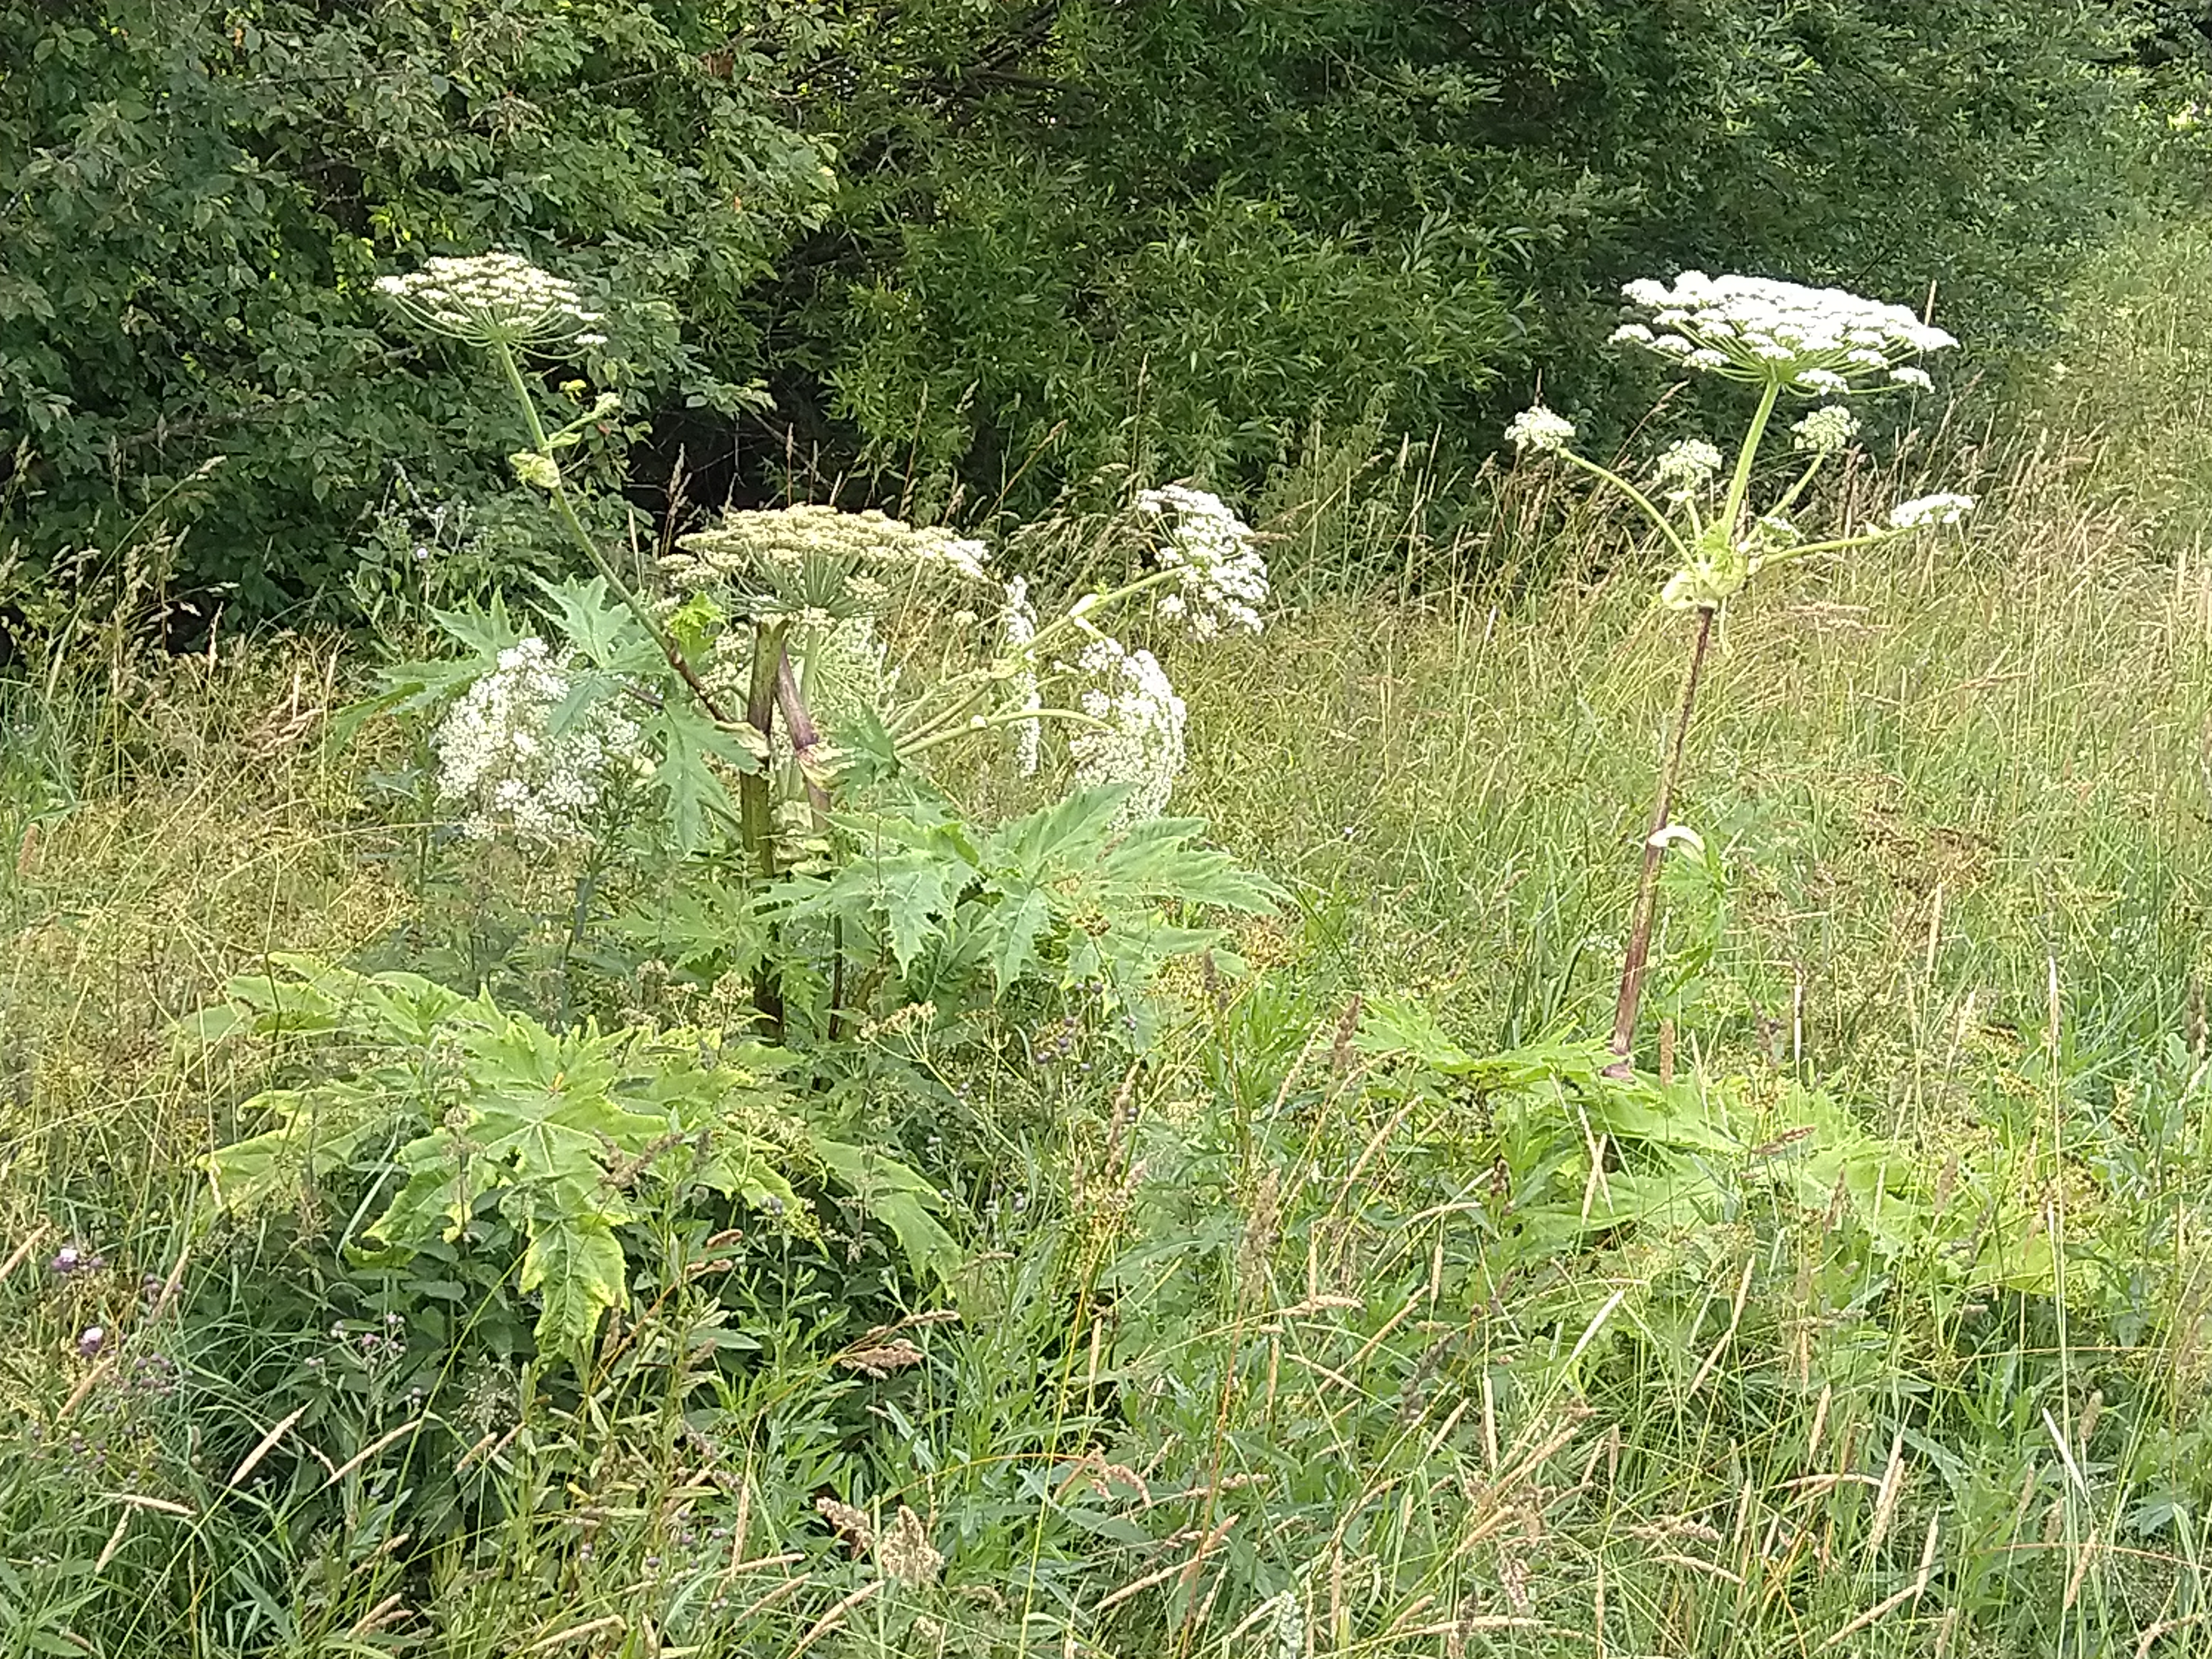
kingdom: Plantae
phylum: Tracheophyta
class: Magnoliopsida
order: Apiales
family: Apiaceae
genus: Heracleum
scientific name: Heracleum
